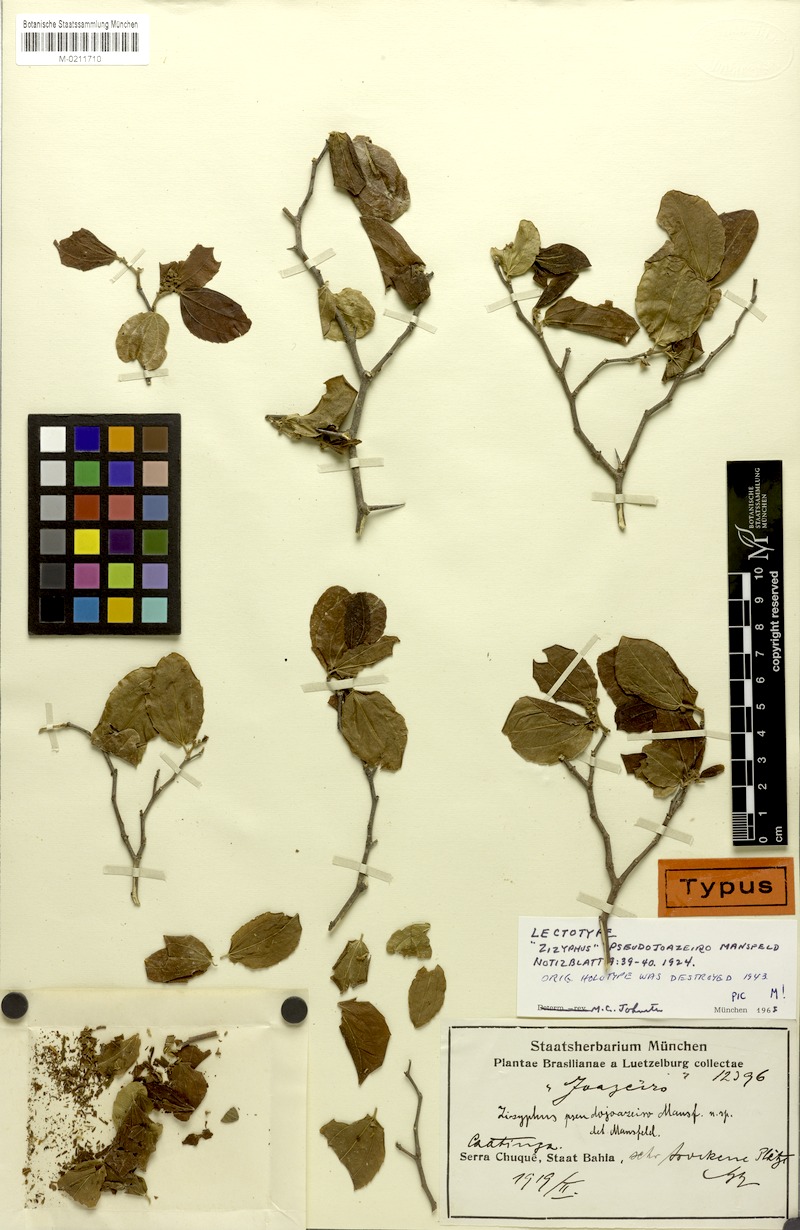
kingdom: Plantae
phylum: Tracheophyta
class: Magnoliopsida
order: Rosales
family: Rhamnaceae
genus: Sarcomphalus
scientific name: Sarcomphalus cotinifolius
